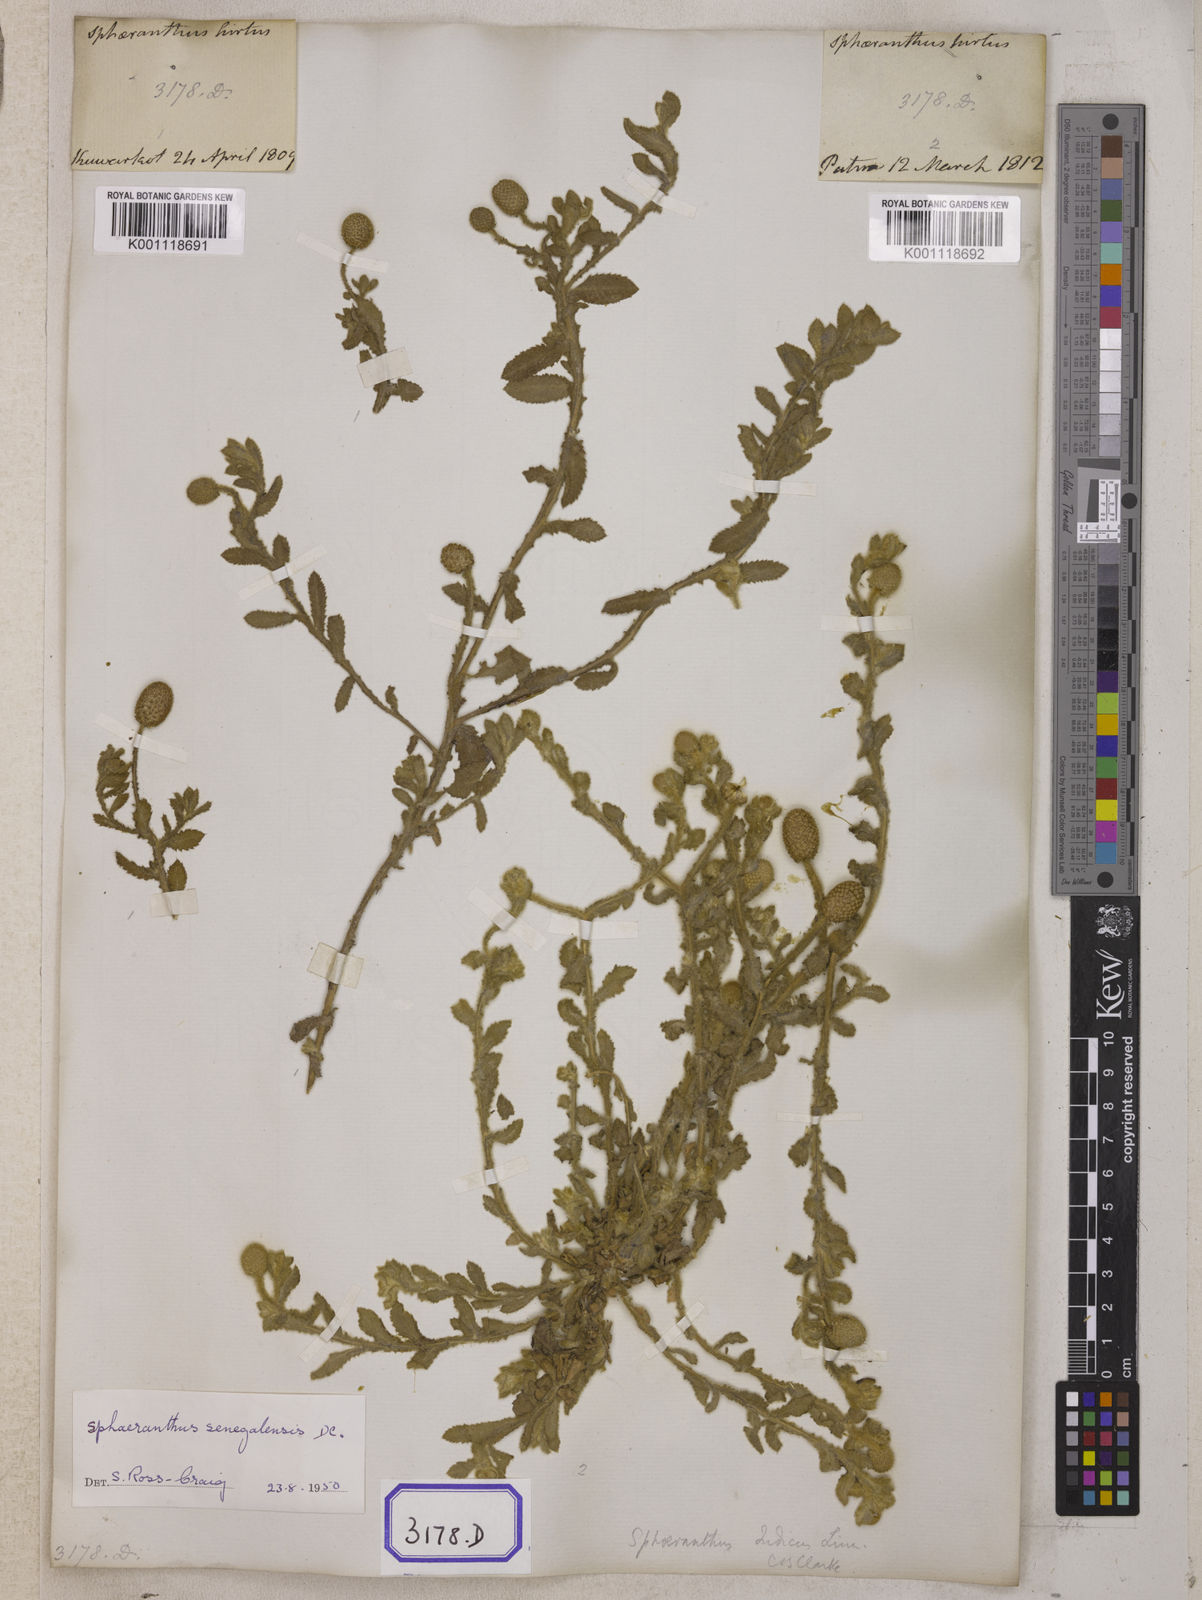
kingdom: Plantae
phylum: Tracheophyta
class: Magnoliopsida
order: Asterales
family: Asteraceae
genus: Sphaeranthus
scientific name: Sphaeranthus indicus
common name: East indian globe thistle
